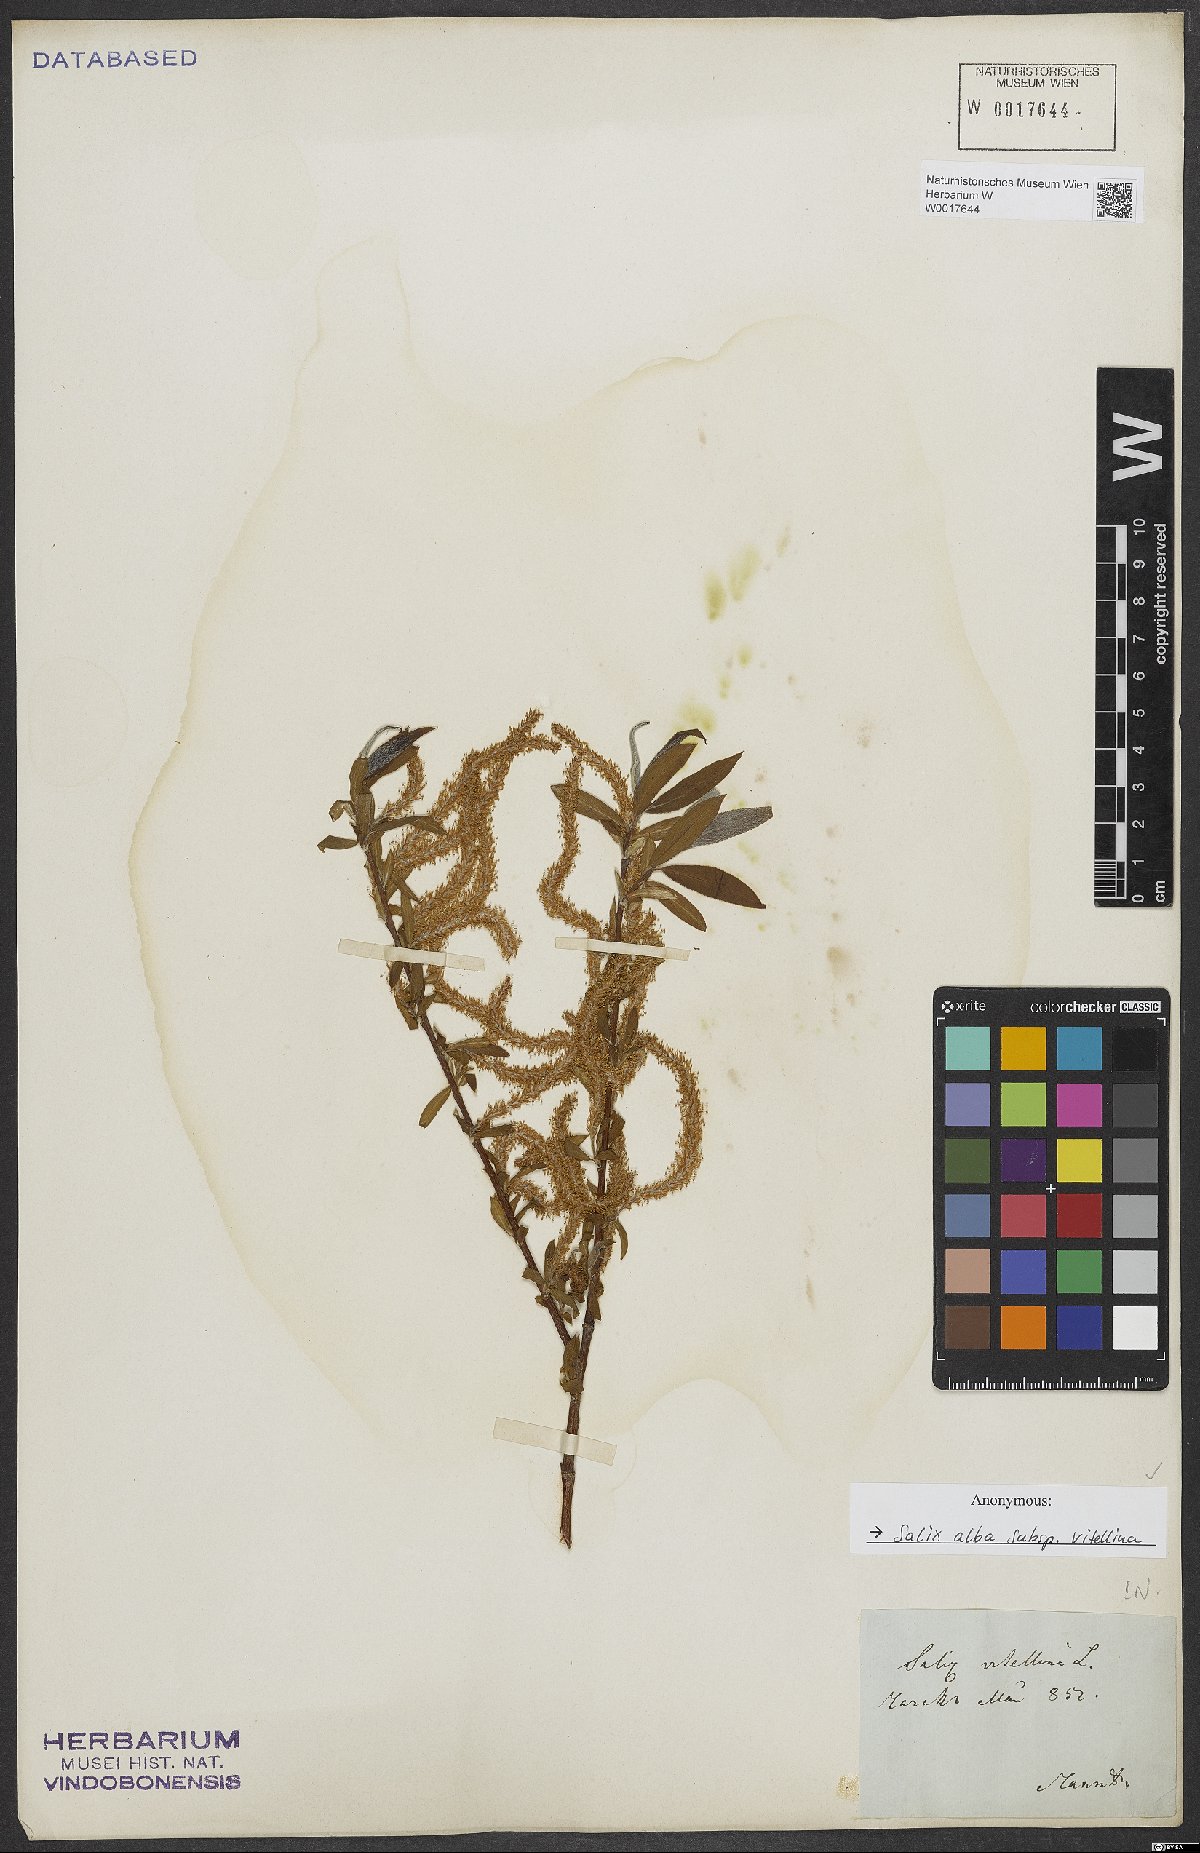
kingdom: Plantae
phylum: Tracheophyta
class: Magnoliopsida
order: Malpighiales
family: Salicaceae
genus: Salix
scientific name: Salix alba
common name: White willow
